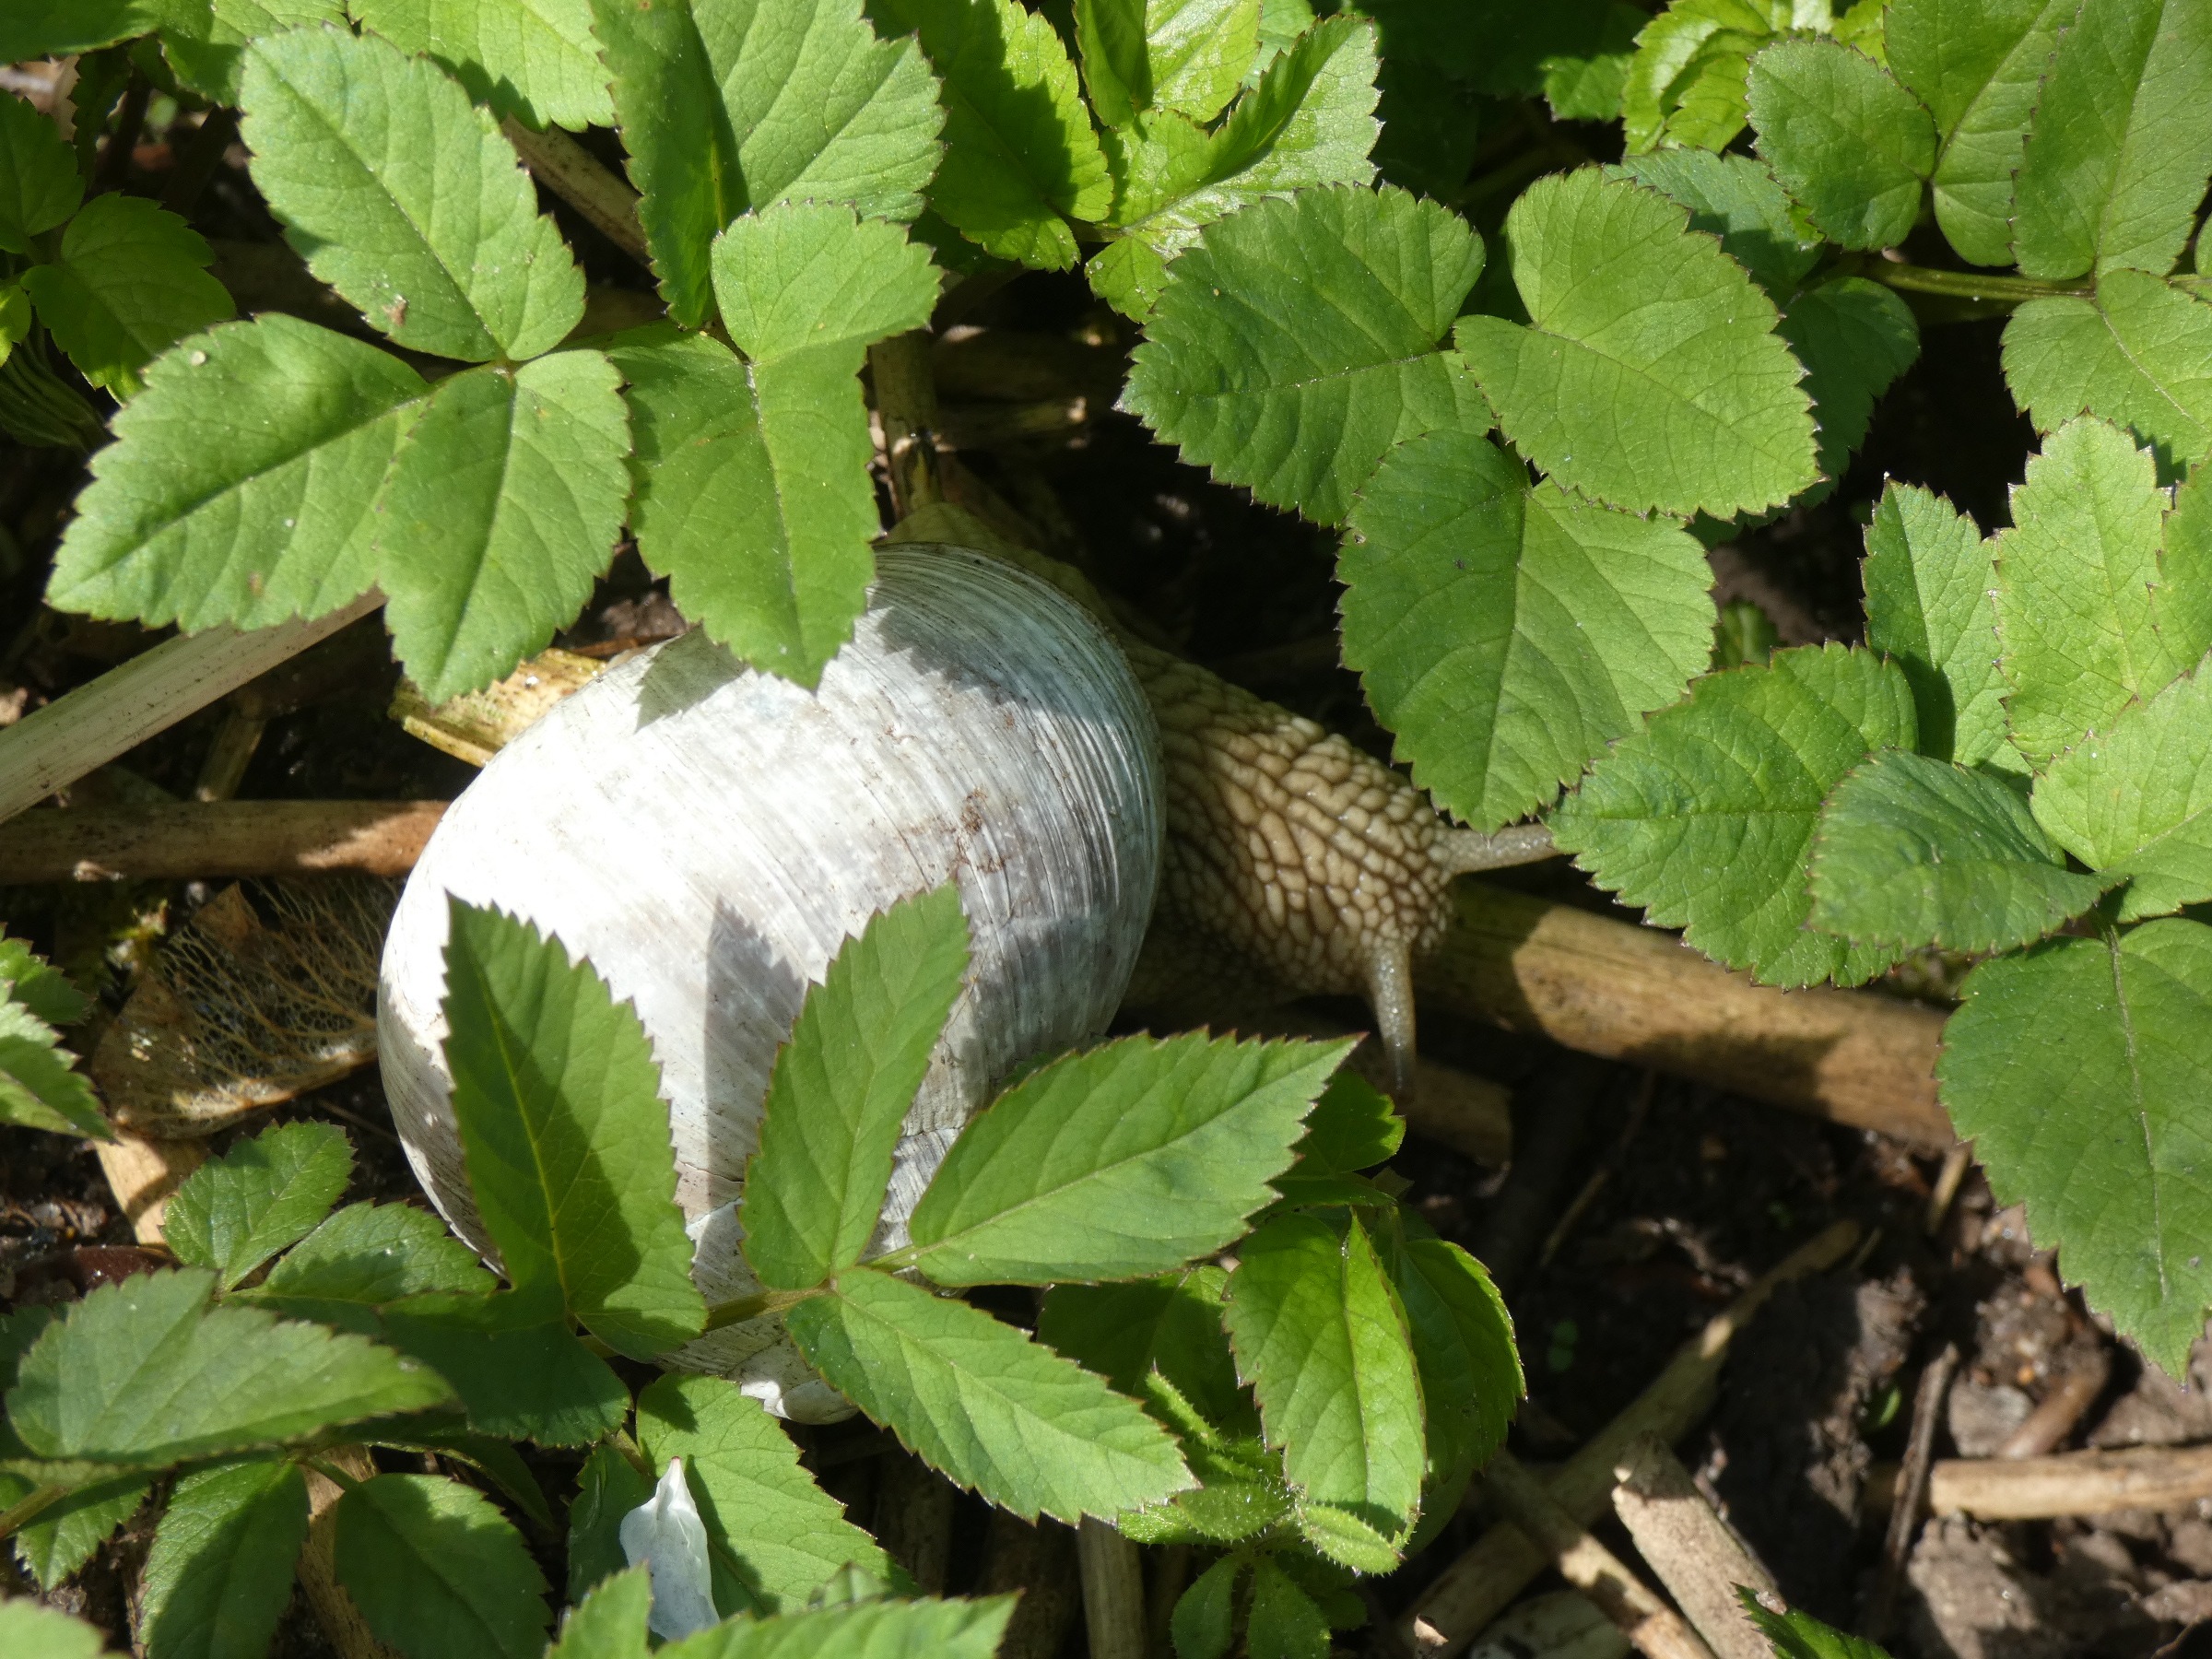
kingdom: Animalia
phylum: Mollusca
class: Gastropoda
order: Stylommatophora
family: Helicidae
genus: Helix
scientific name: Helix pomatia
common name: Vinbjergsnegl
